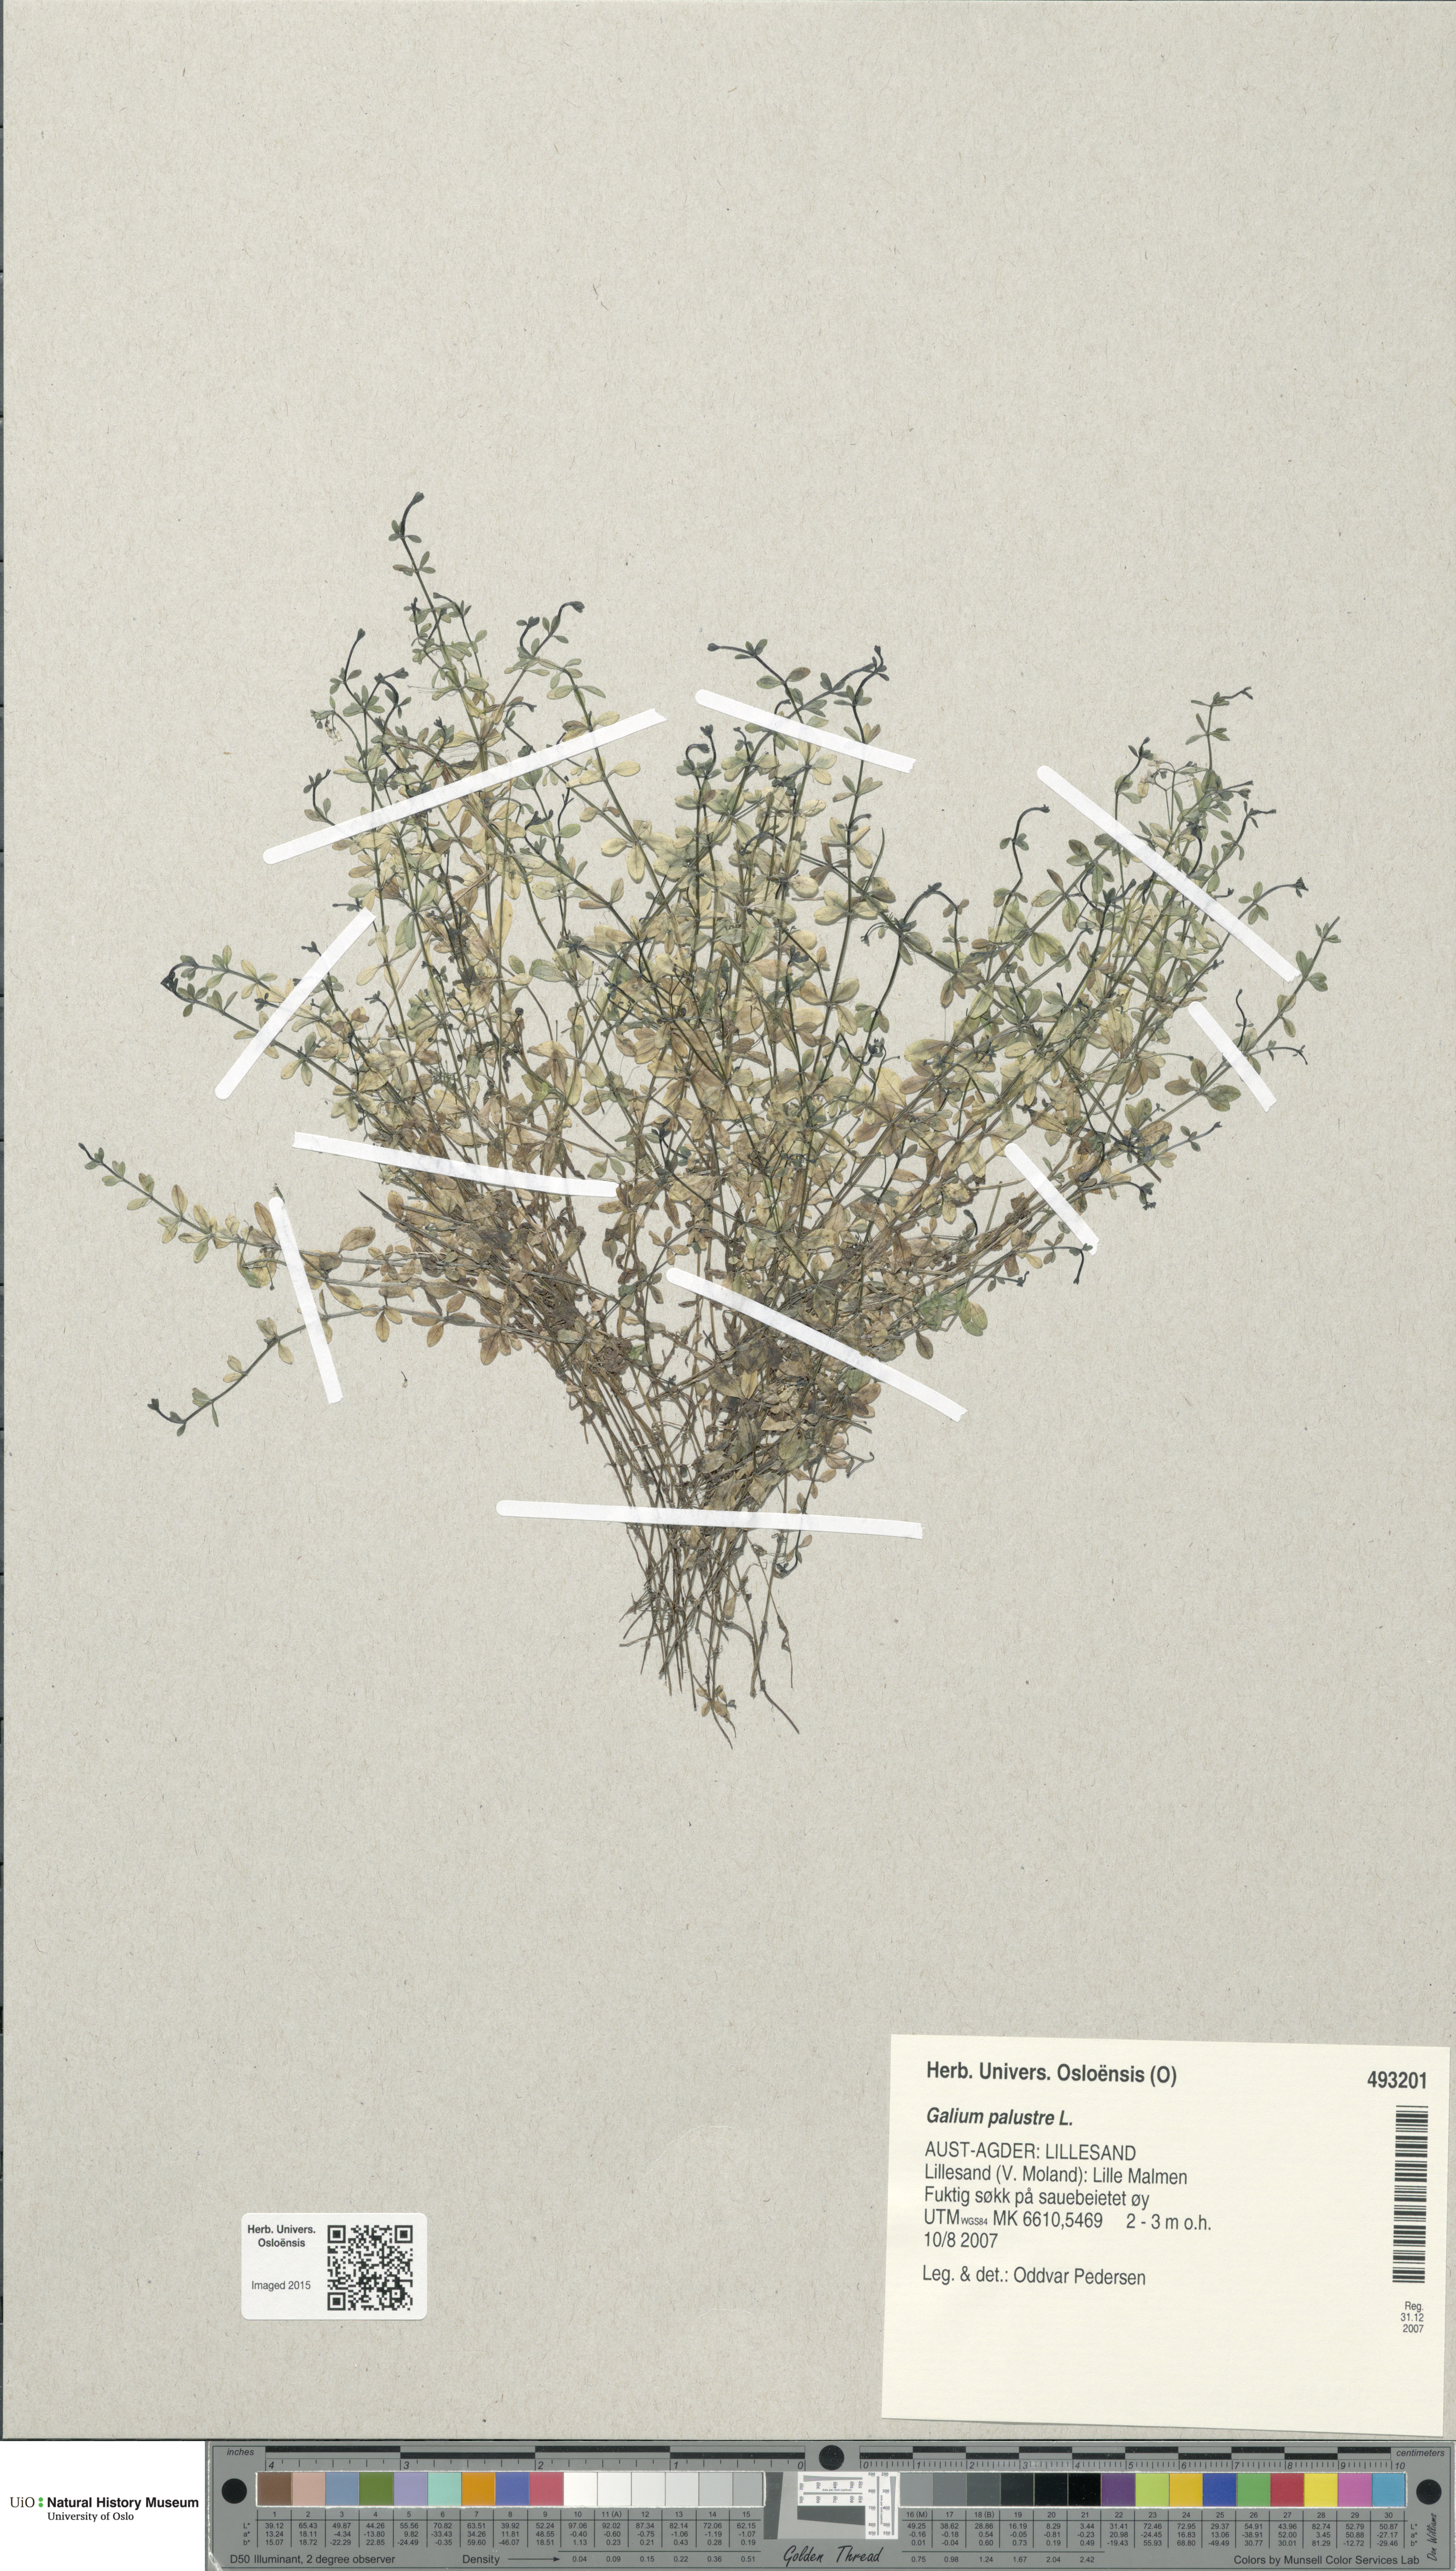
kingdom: Plantae
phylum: Tracheophyta
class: Magnoliopsida
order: Gentianales
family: Rubiaceae
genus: Galium
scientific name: Galium palustre
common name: Common marsh-bedstraw
